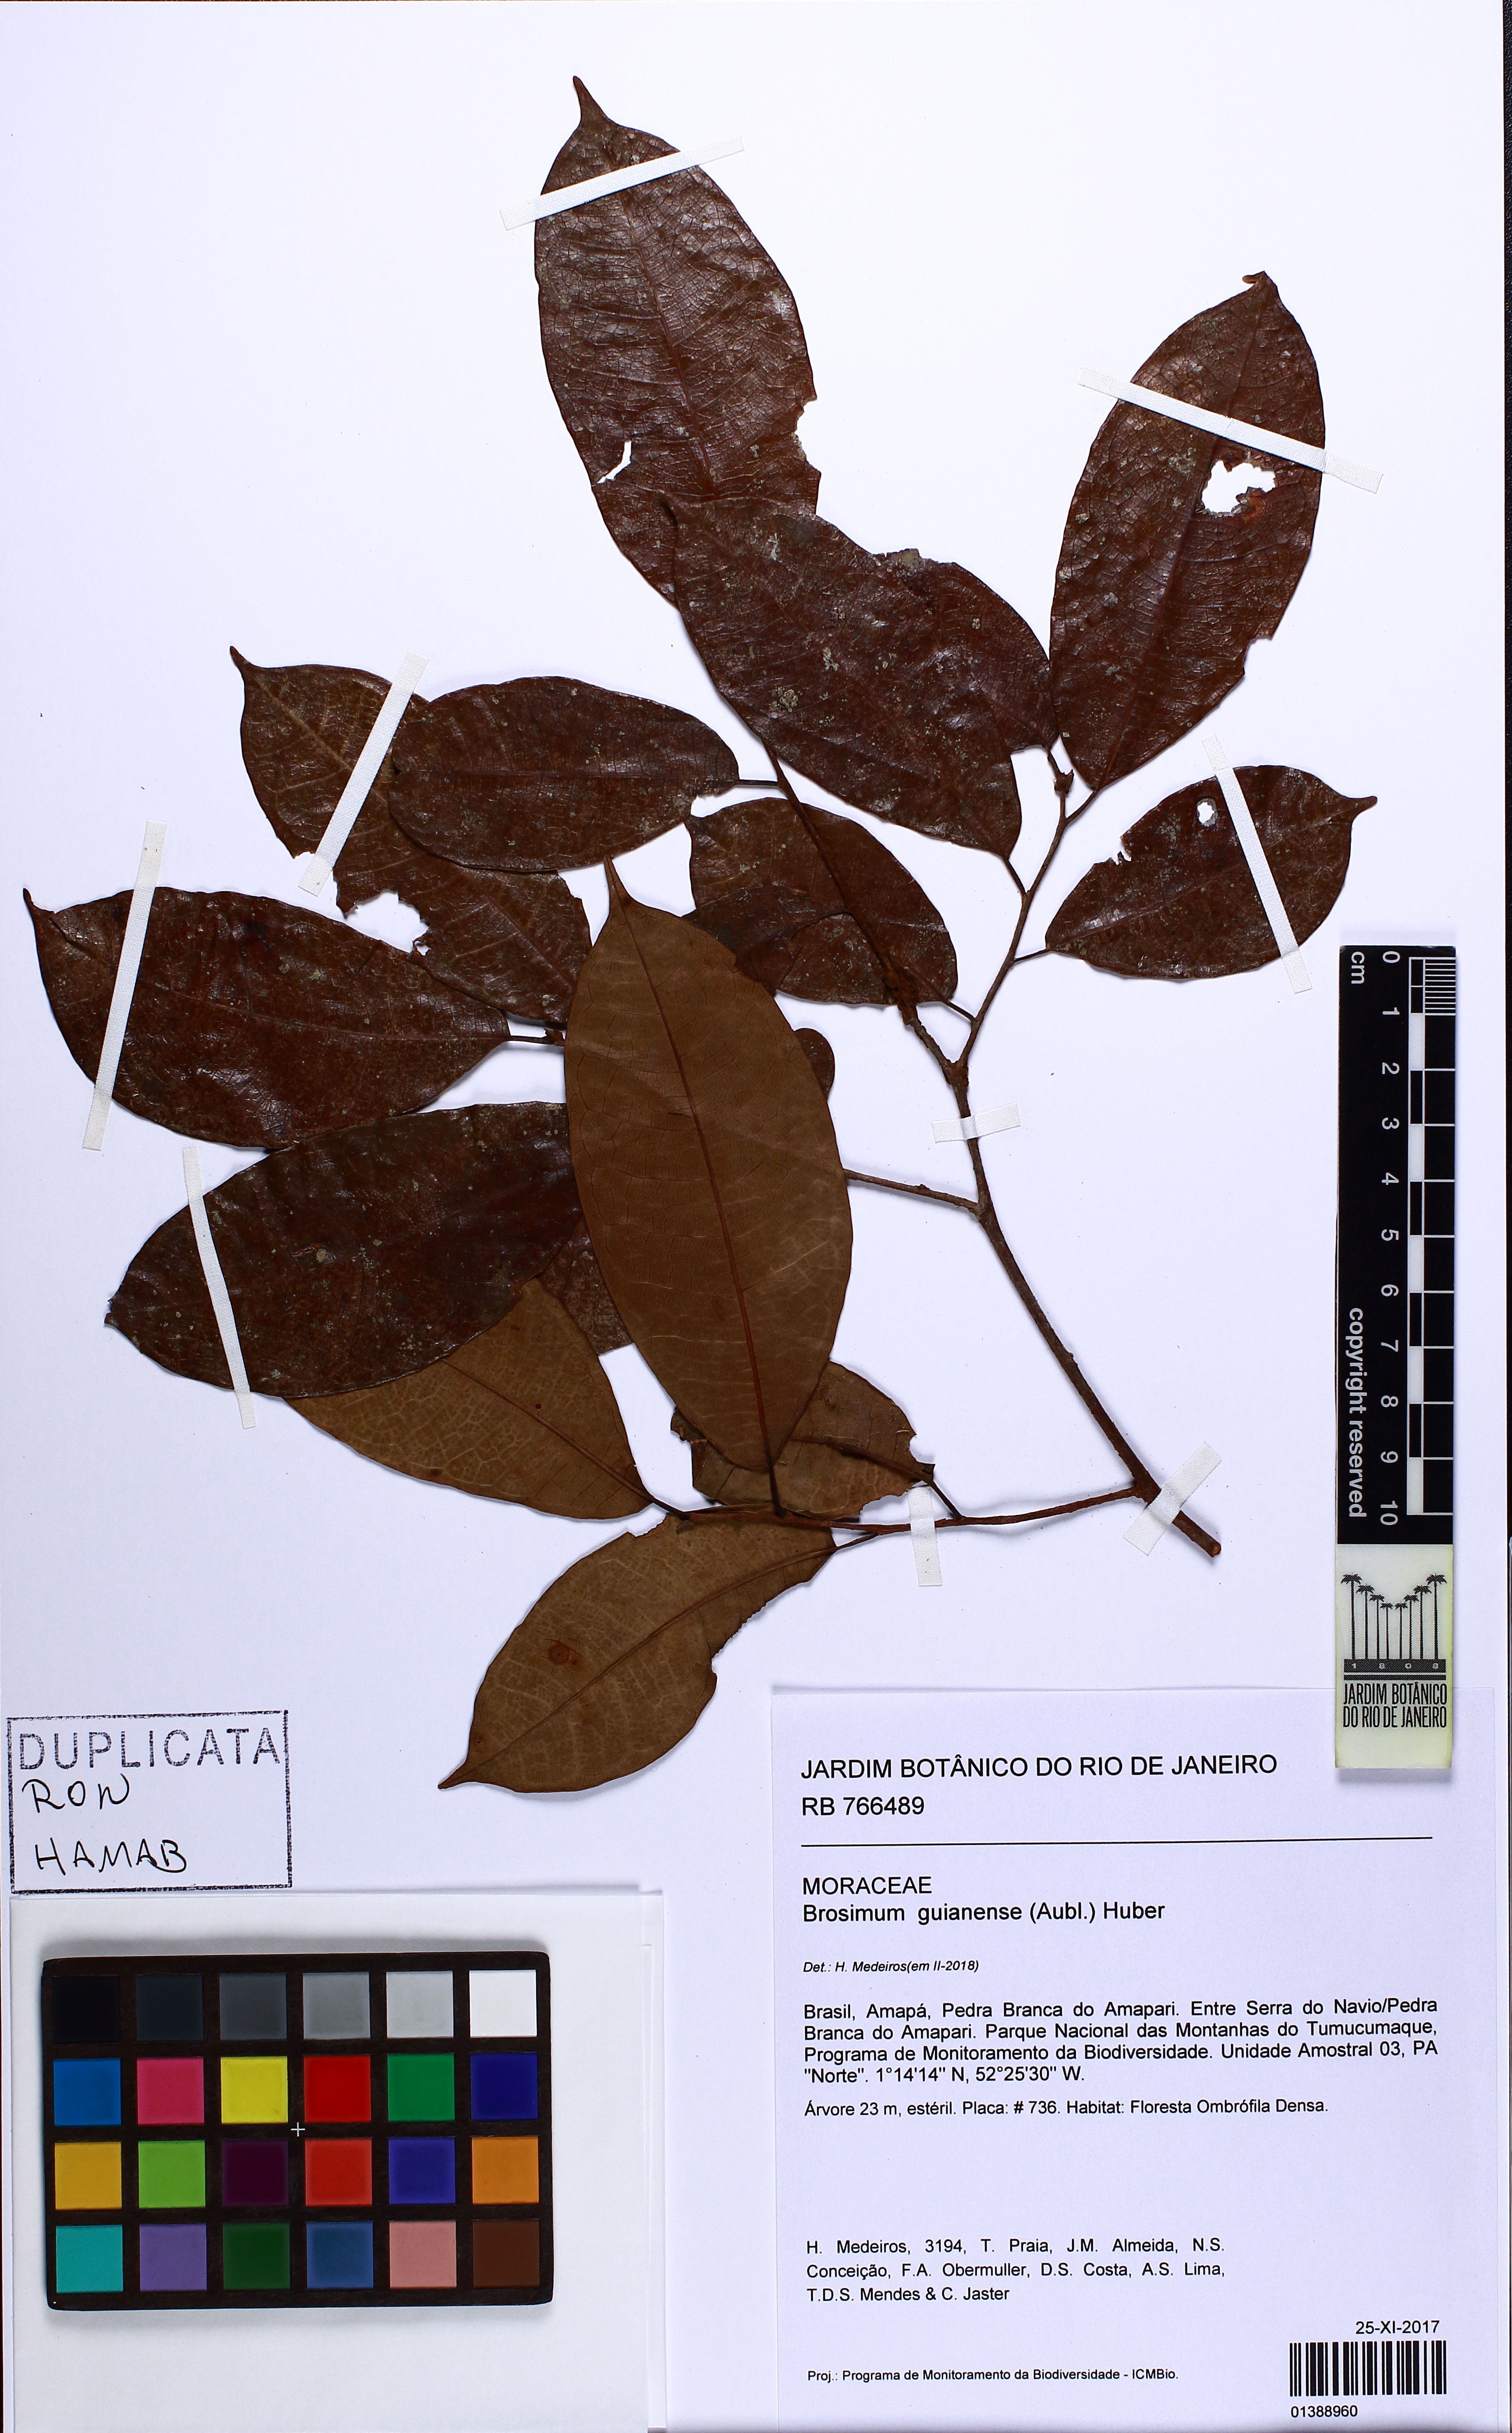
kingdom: Plantae
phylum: Tracheophyta
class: Magnoliopsida
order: Rosales
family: Moraceae
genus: Brosimum
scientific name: Brosimum guianense
